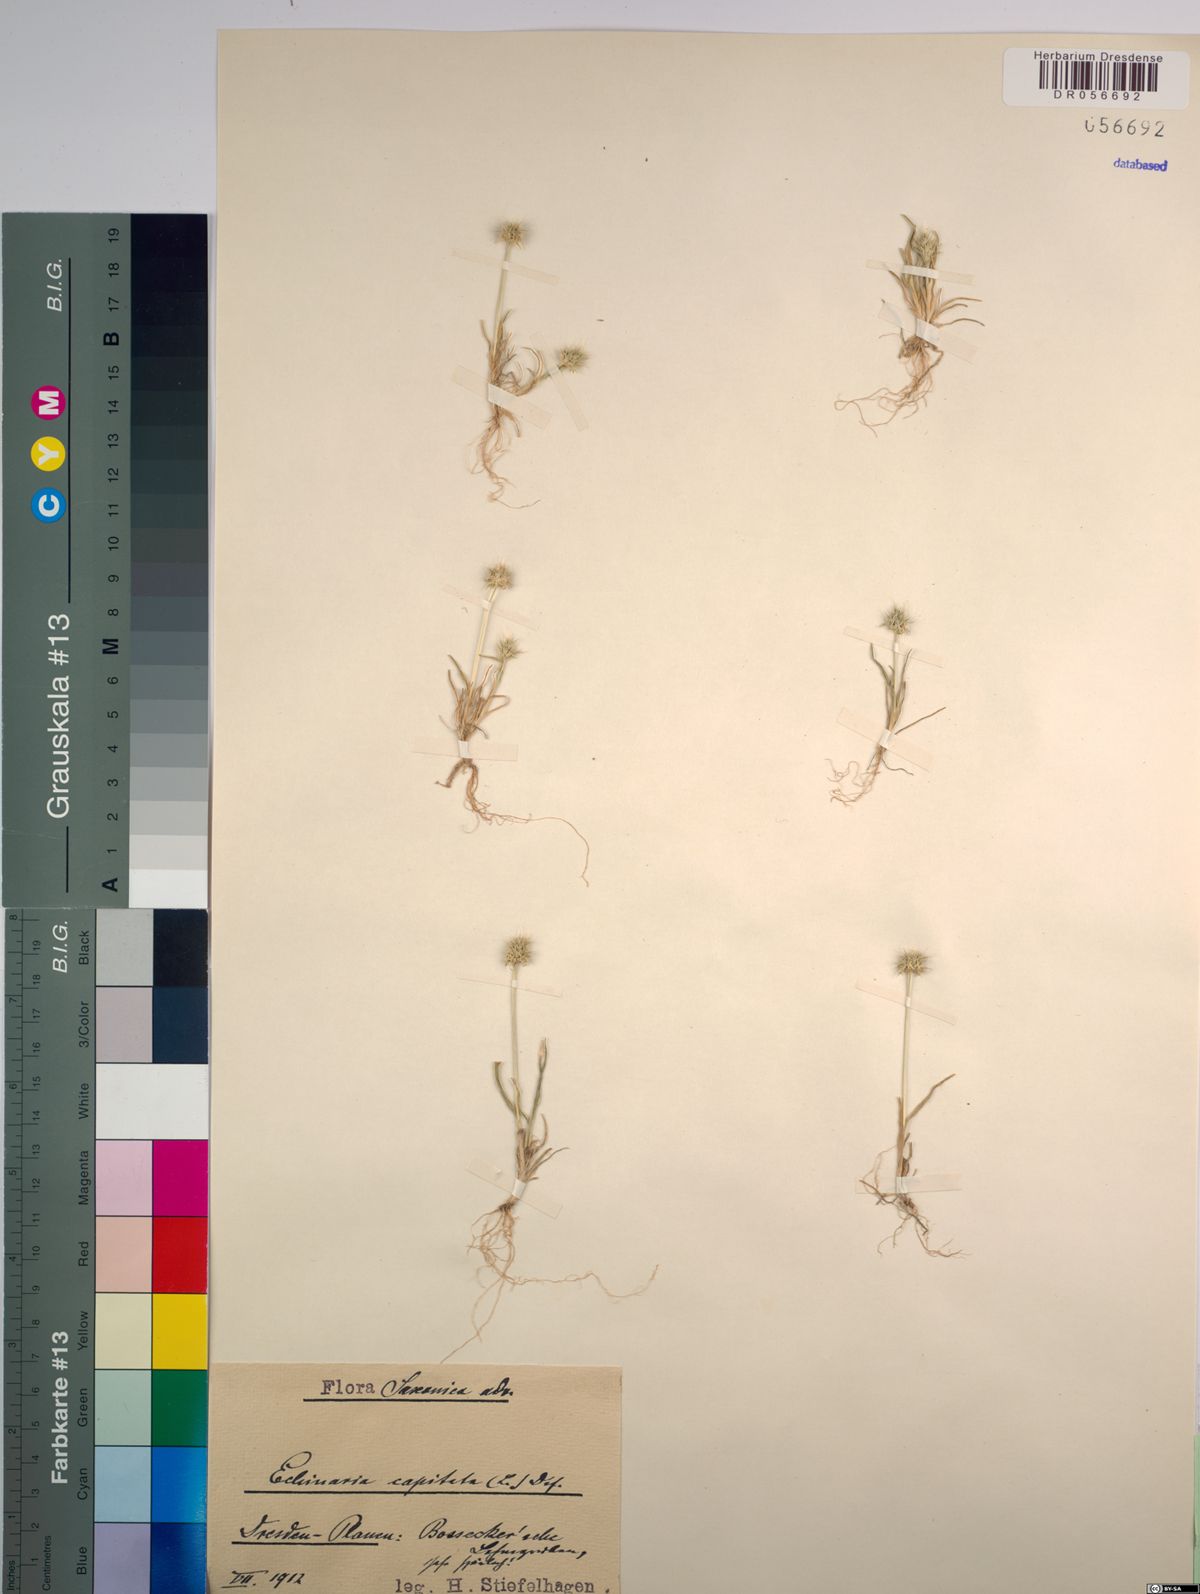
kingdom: Plantae
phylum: Tracheophyta
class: Liliopsida
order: Poales
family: Poaceae
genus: Echinaria
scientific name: Echinaria capitata
